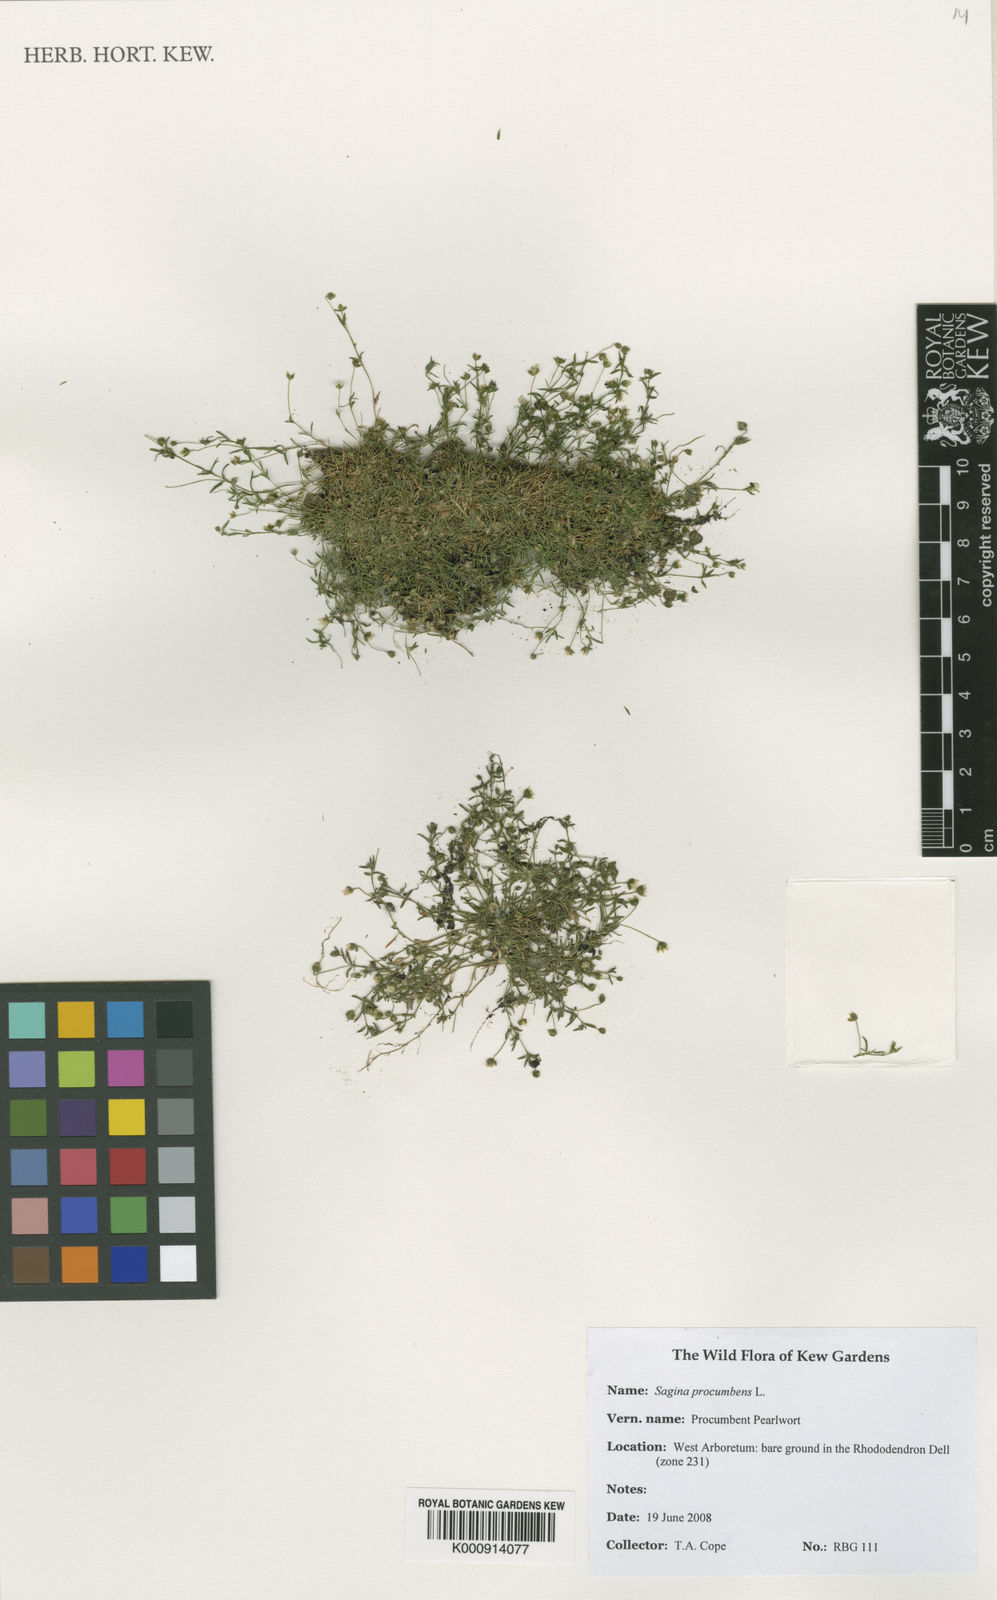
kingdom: Plantae
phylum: Tracheophyta
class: Magnoliopsida
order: Caryophyllales
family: Caryophyllaceae
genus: Sagina
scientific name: Sagina procumbens
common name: Procumbent pearlwort
